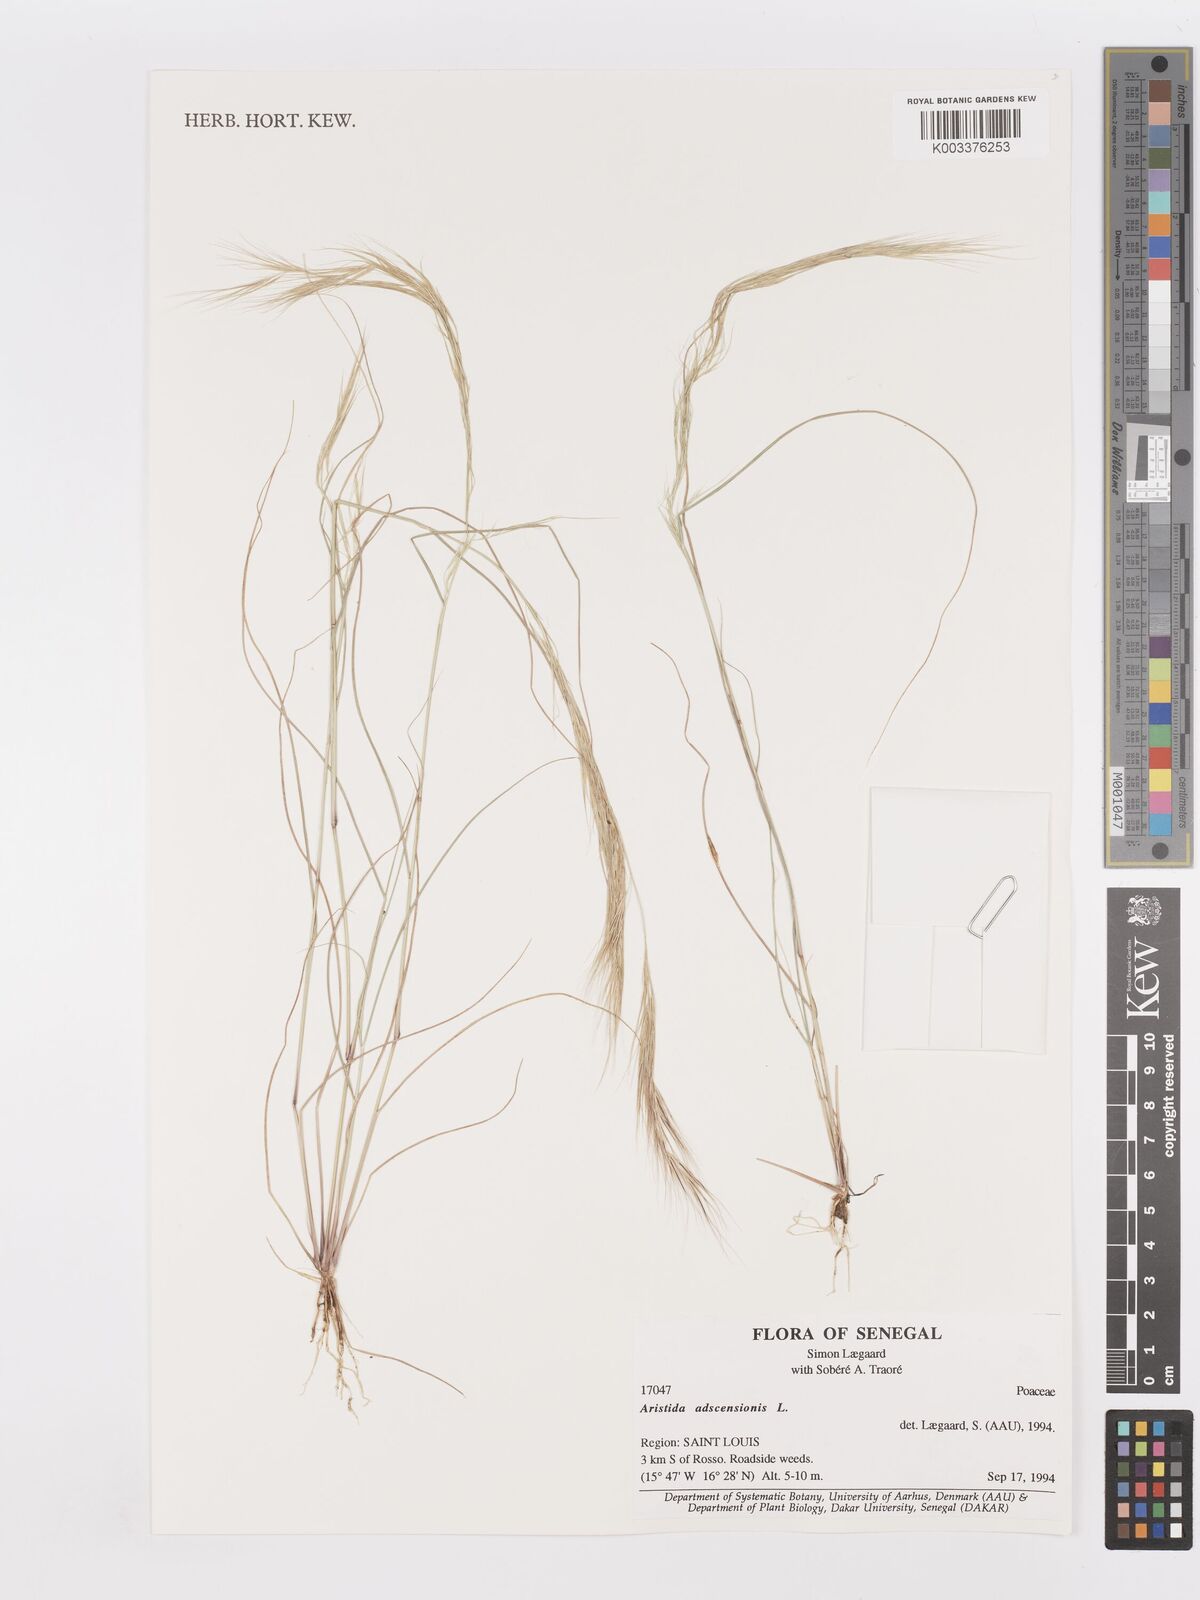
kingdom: Plantae
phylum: Tracheophyta
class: Liliopsida
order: Poales
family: Poaceae
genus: Aristida
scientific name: Aristida adscensionis
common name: Sixweeks threeawn
